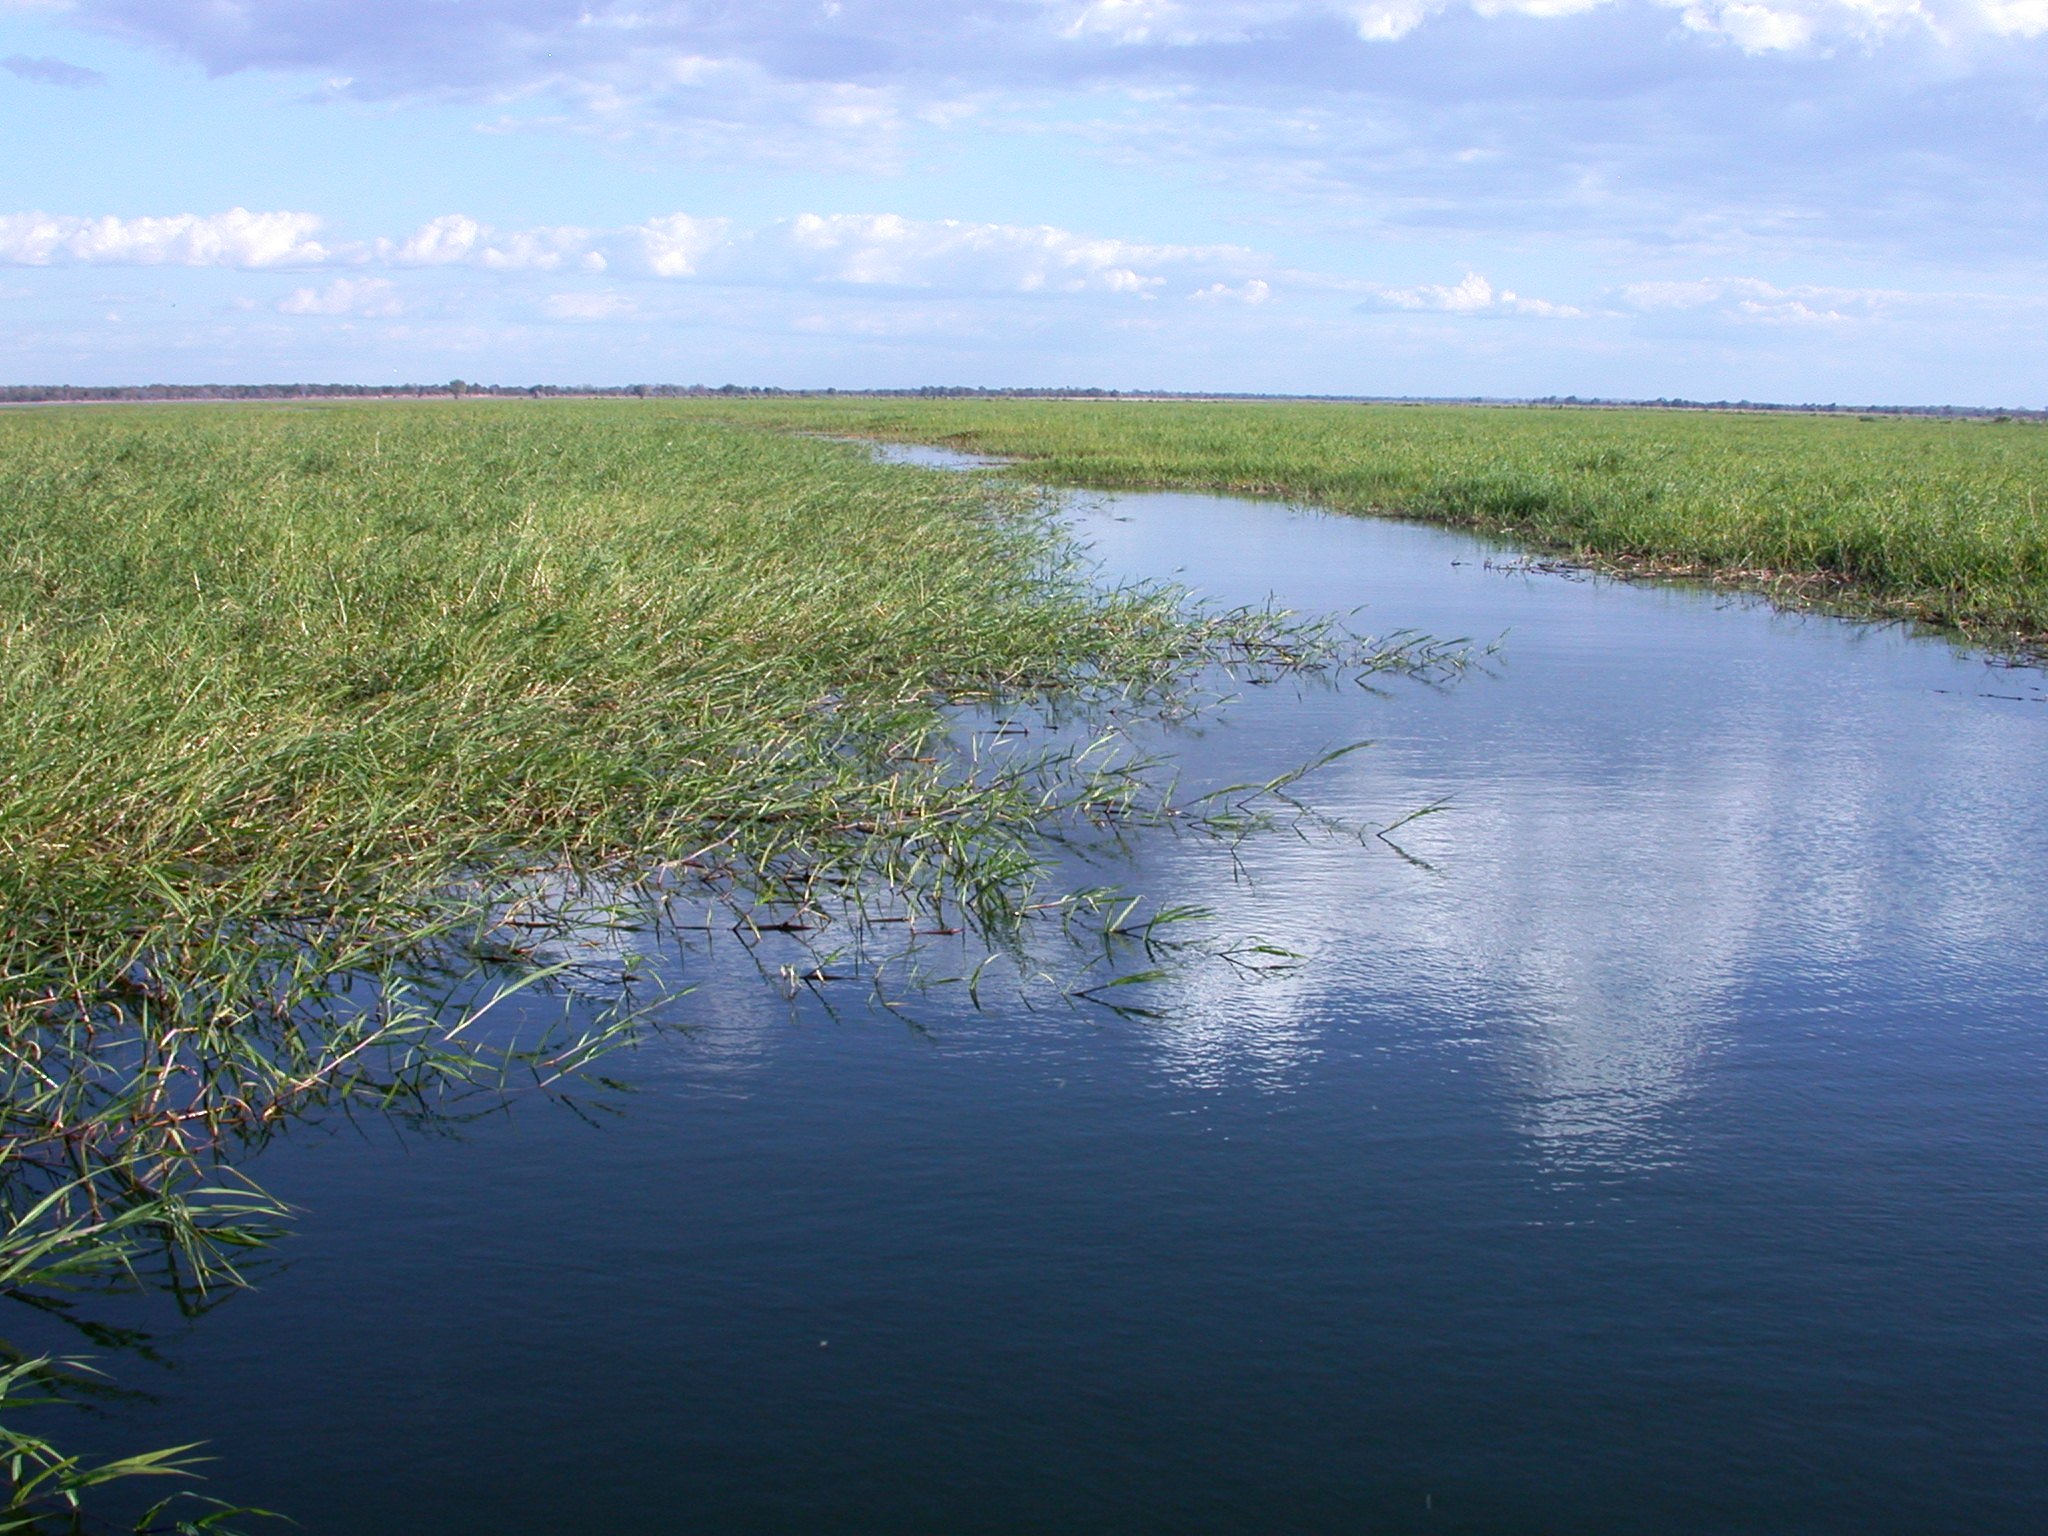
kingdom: Animalia
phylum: Chordata
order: Characiformes
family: Alestidae
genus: Brycinus
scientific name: Brycinus imberi
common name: Imberi
